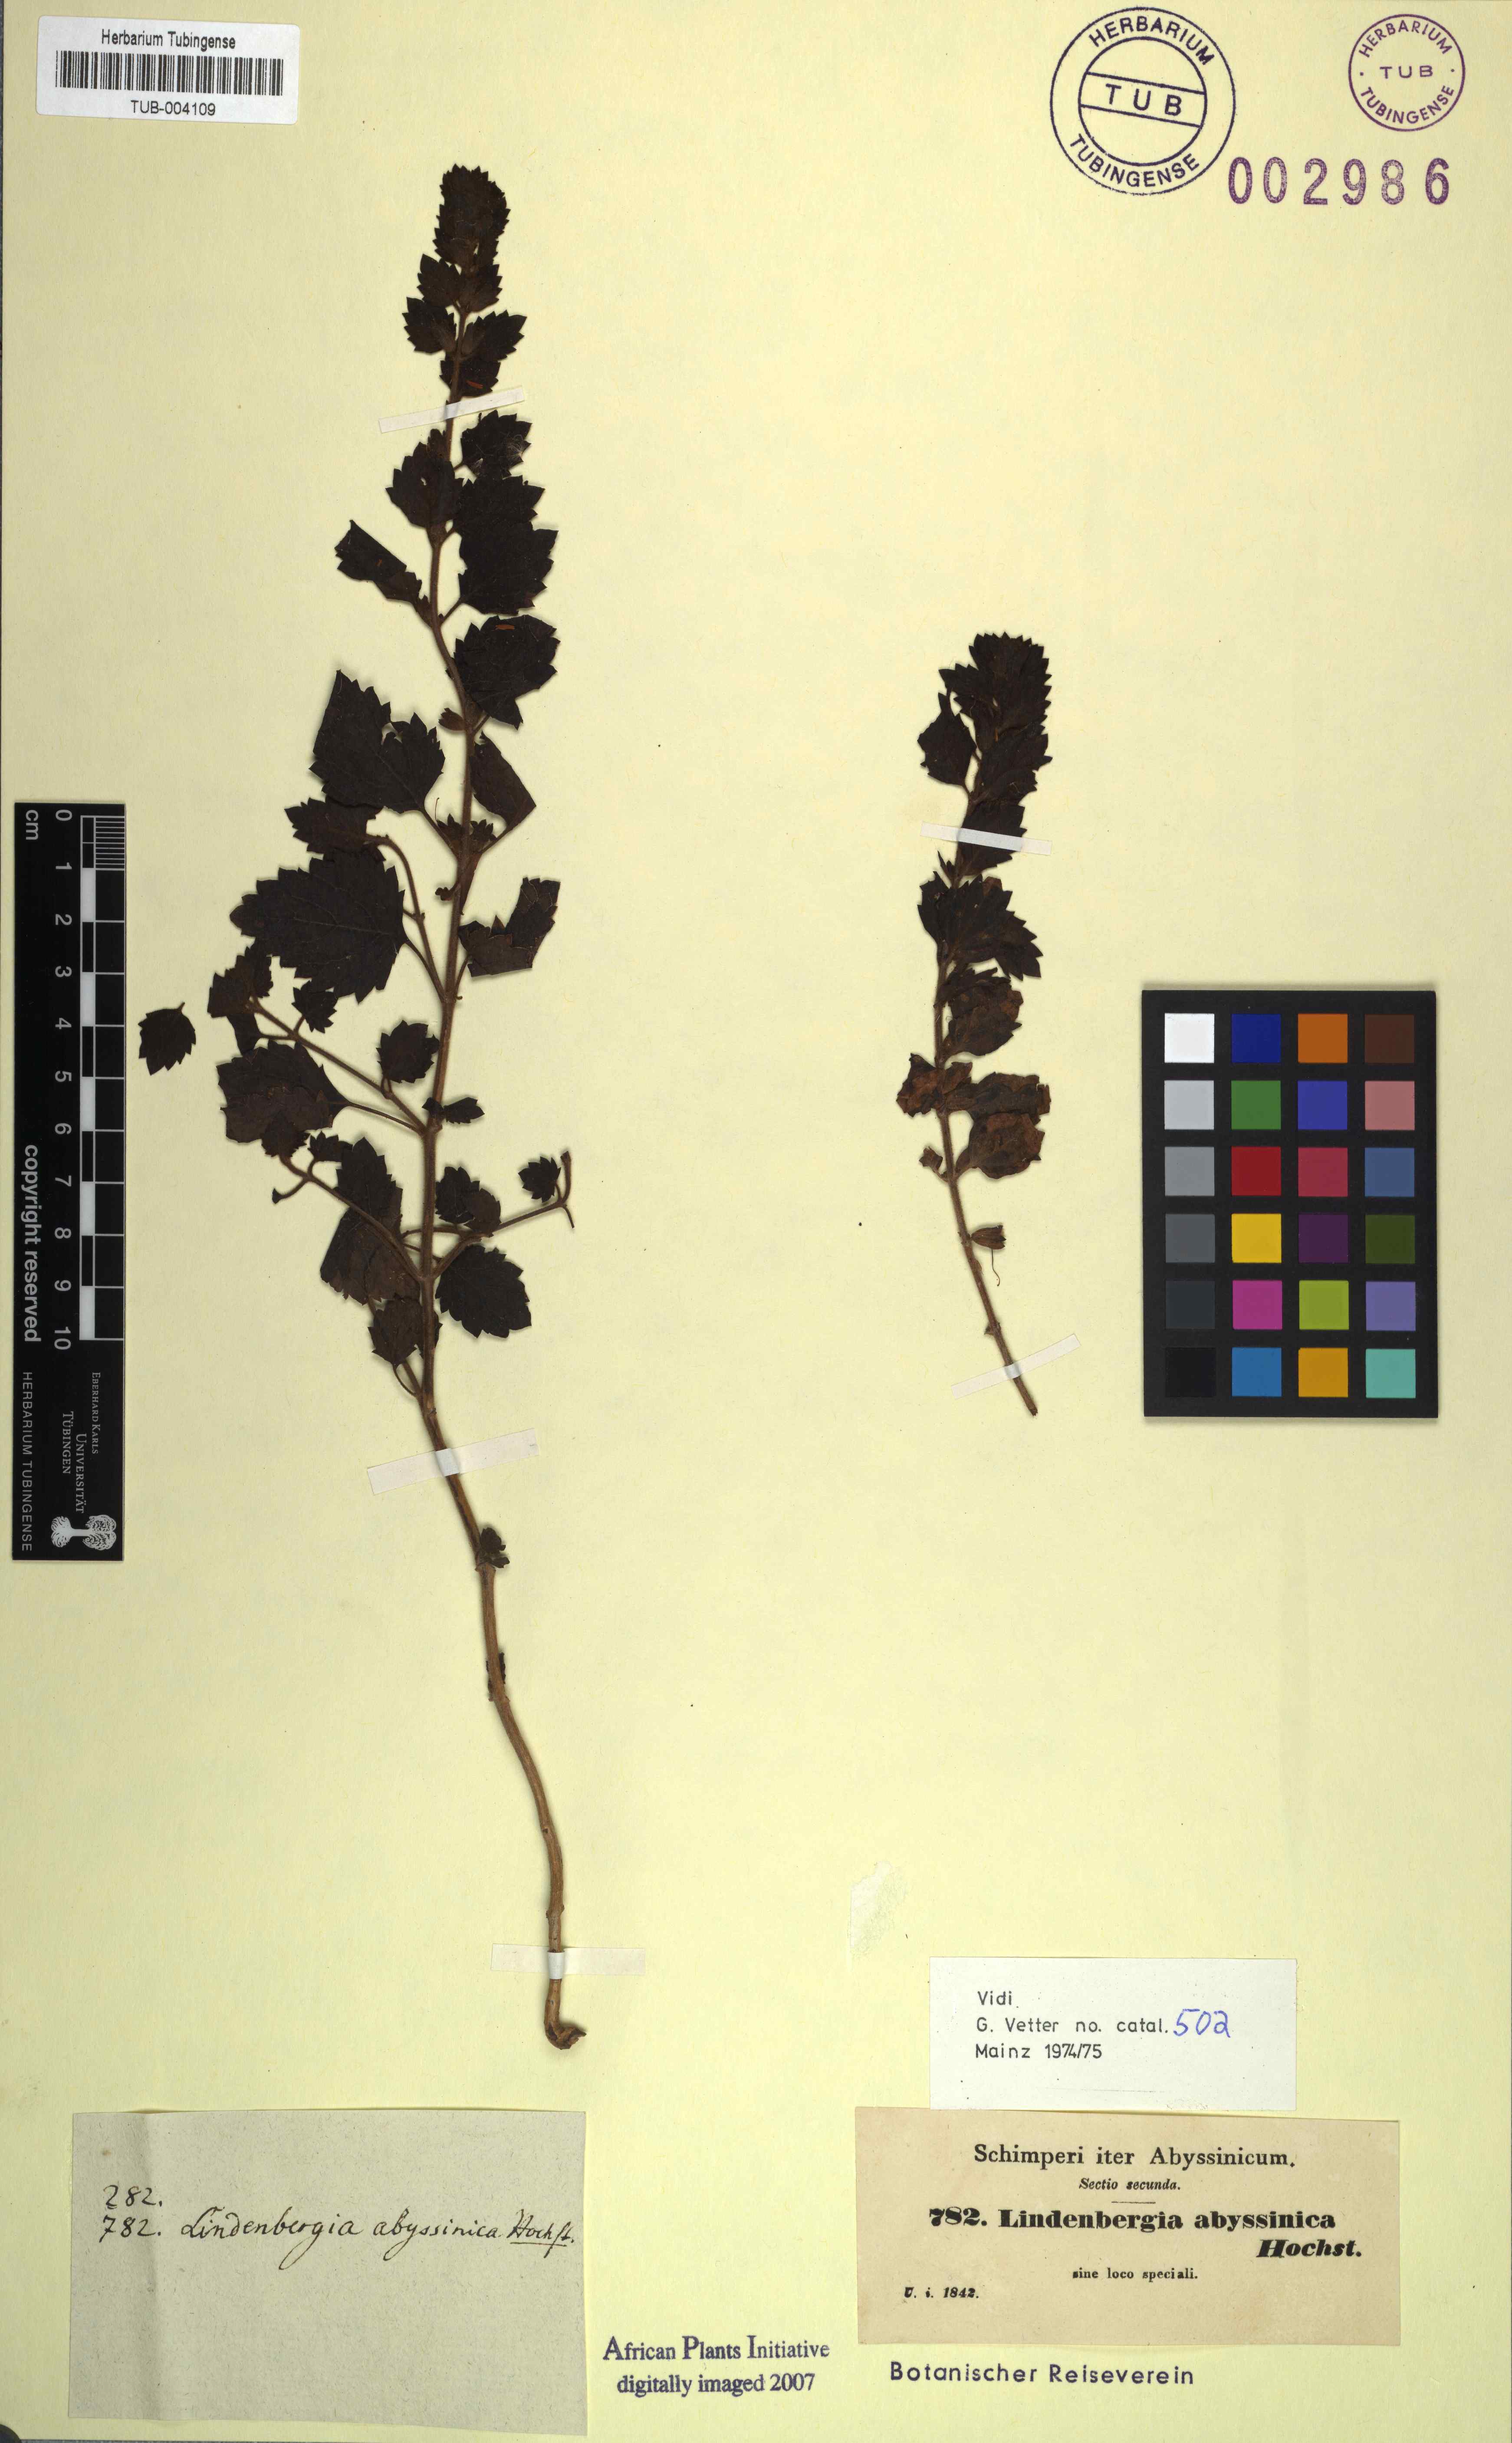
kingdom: Plantae
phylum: Tracheophyta
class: Magnoliopsida
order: Lamiales
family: Orobanchaceae
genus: Lindenbergia
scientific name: Lindenbergia indica
